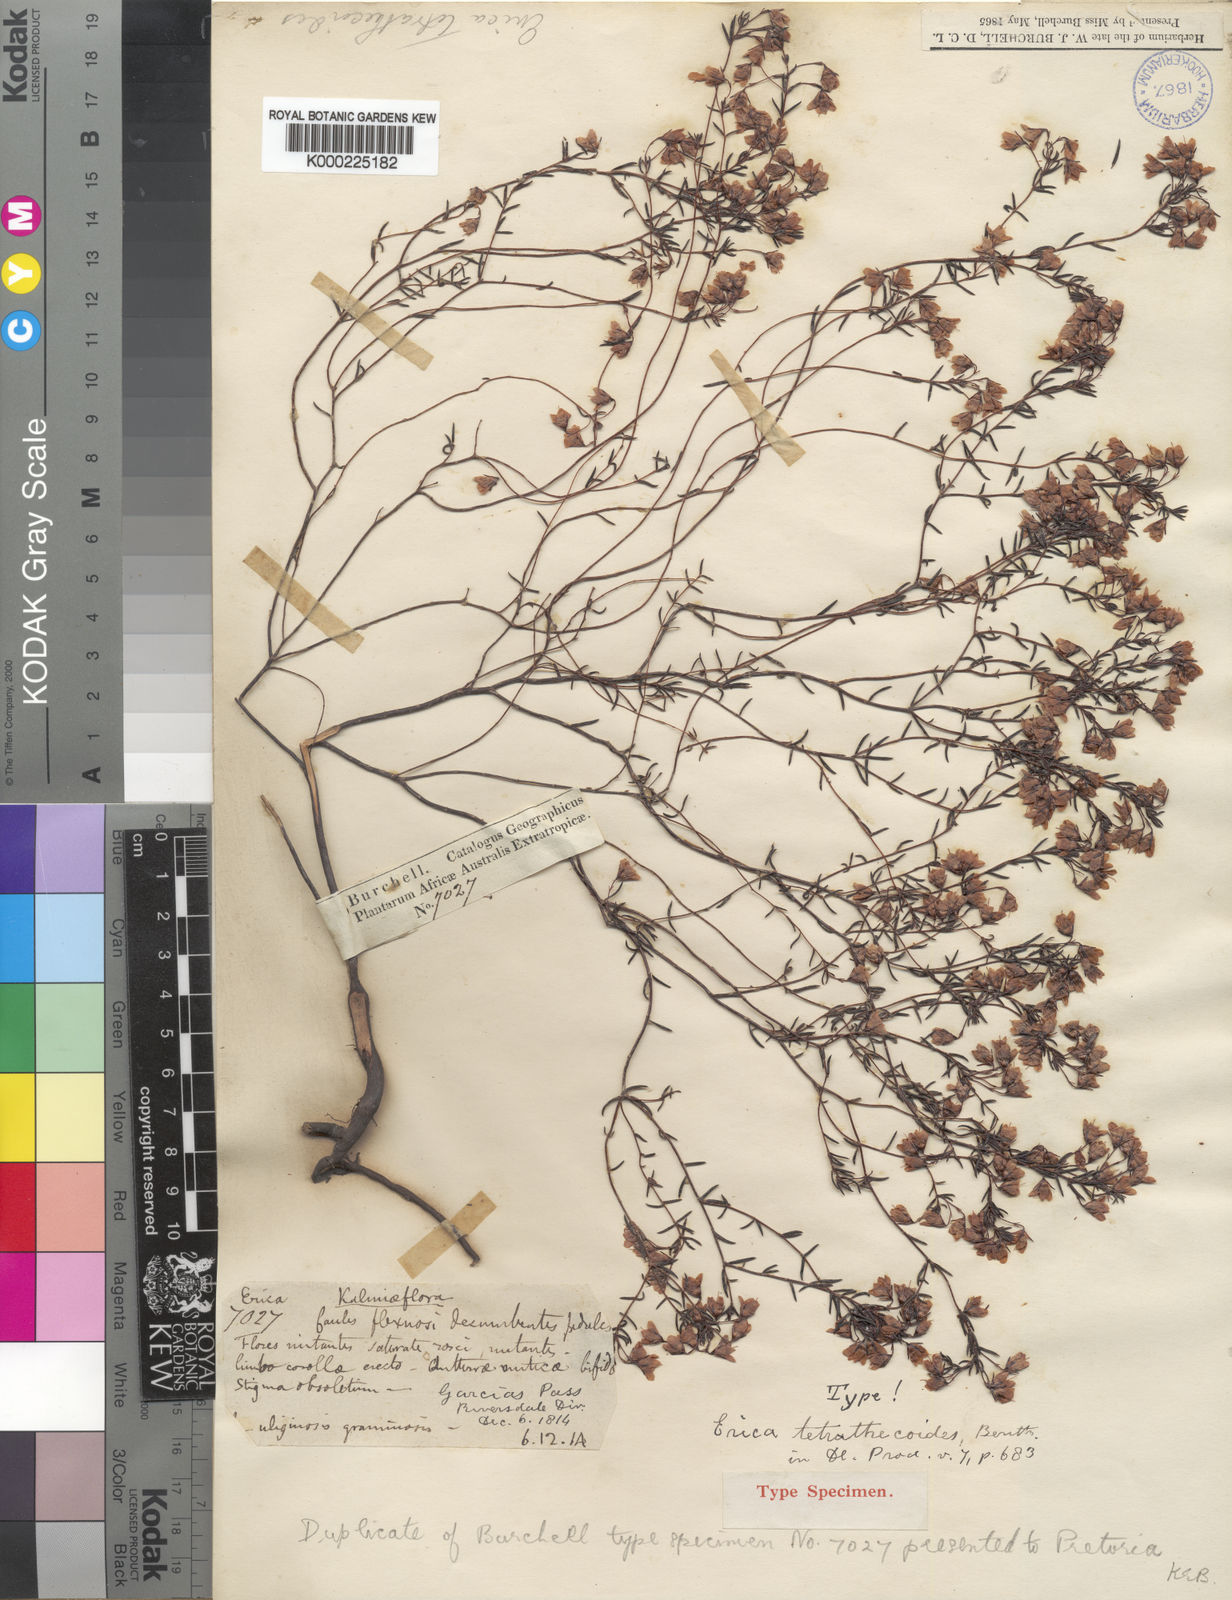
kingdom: Plantae
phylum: Tracheophyta
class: Magnoliopsida
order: Ericales
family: Ericaceae
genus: Erica
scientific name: Erica tetrathecoides
